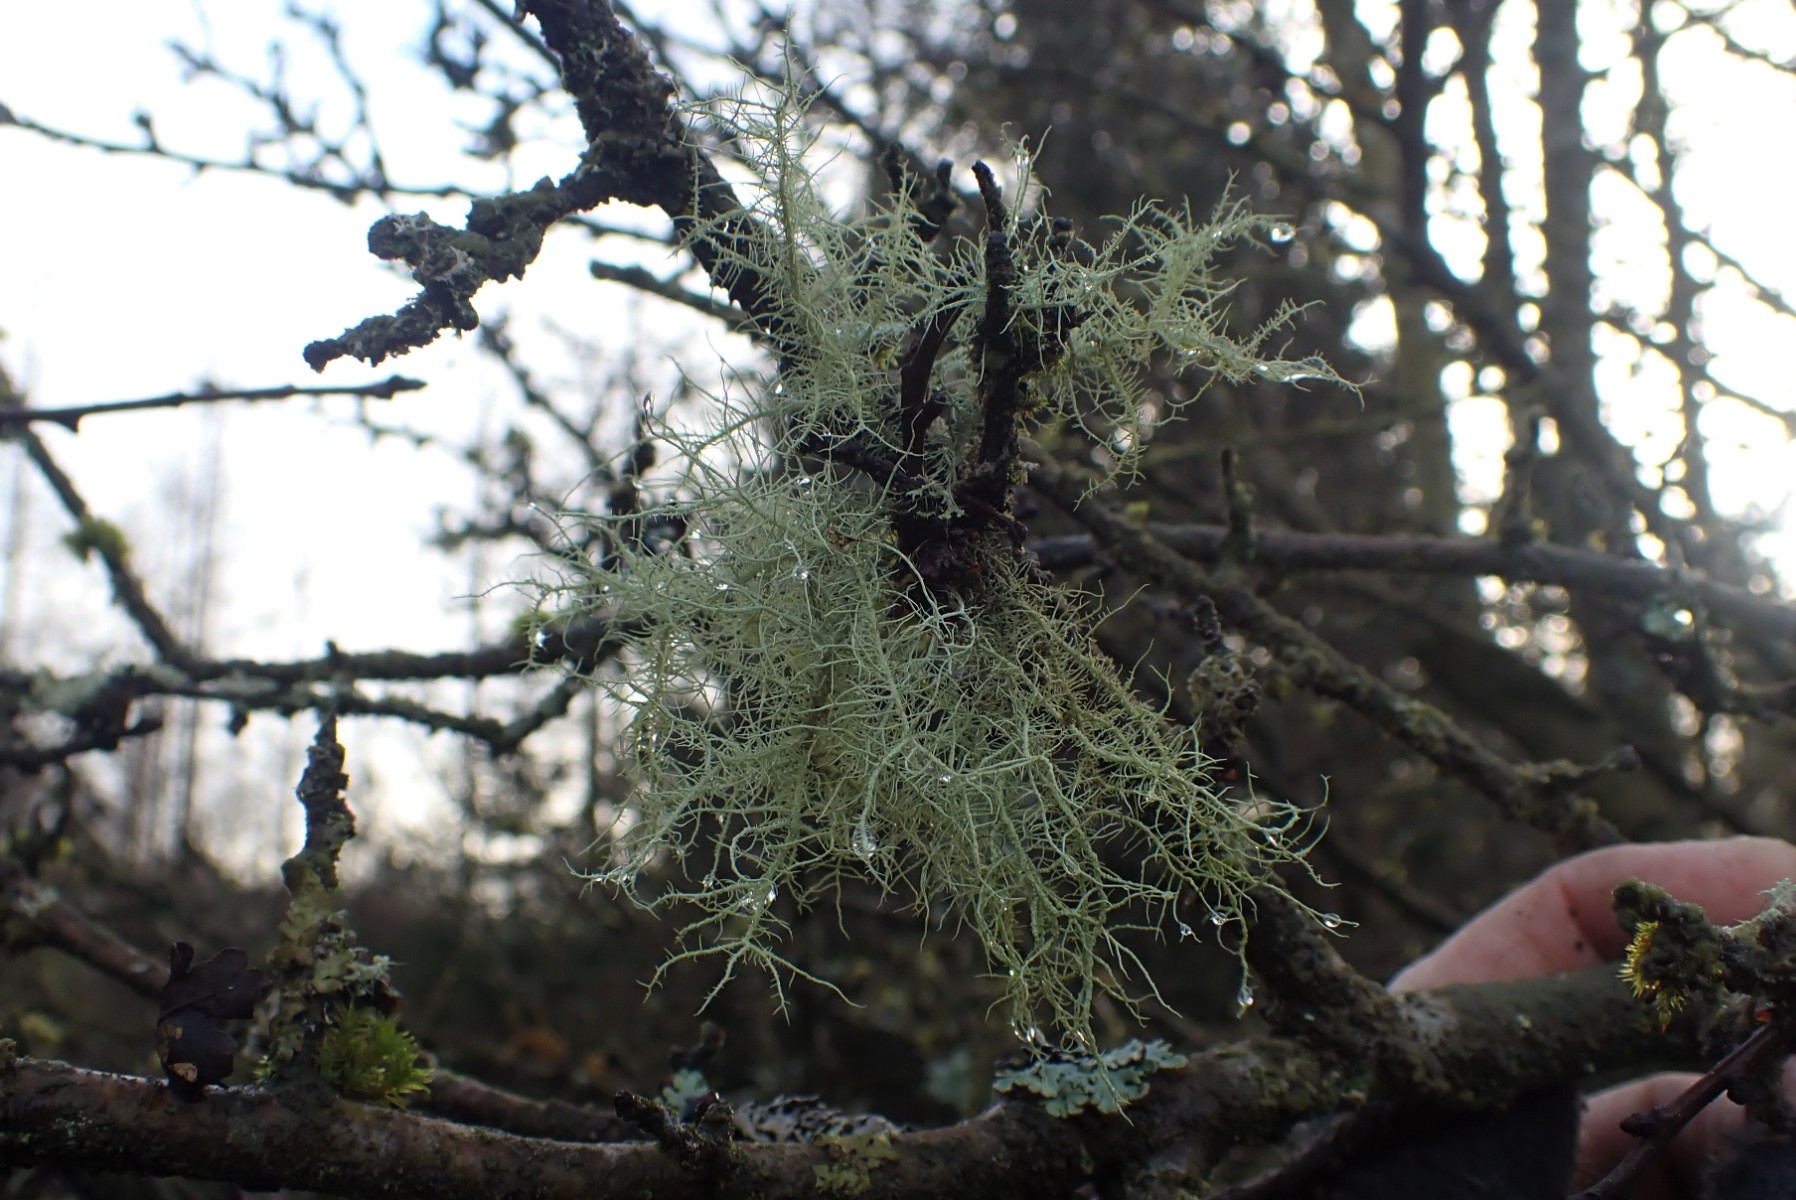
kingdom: Fungi
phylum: Ascomycota
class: Lecanoromycetes
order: Lecanorales
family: Parmeliaceae
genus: Usnea
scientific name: Usnea subfloridana
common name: busket skæglav
